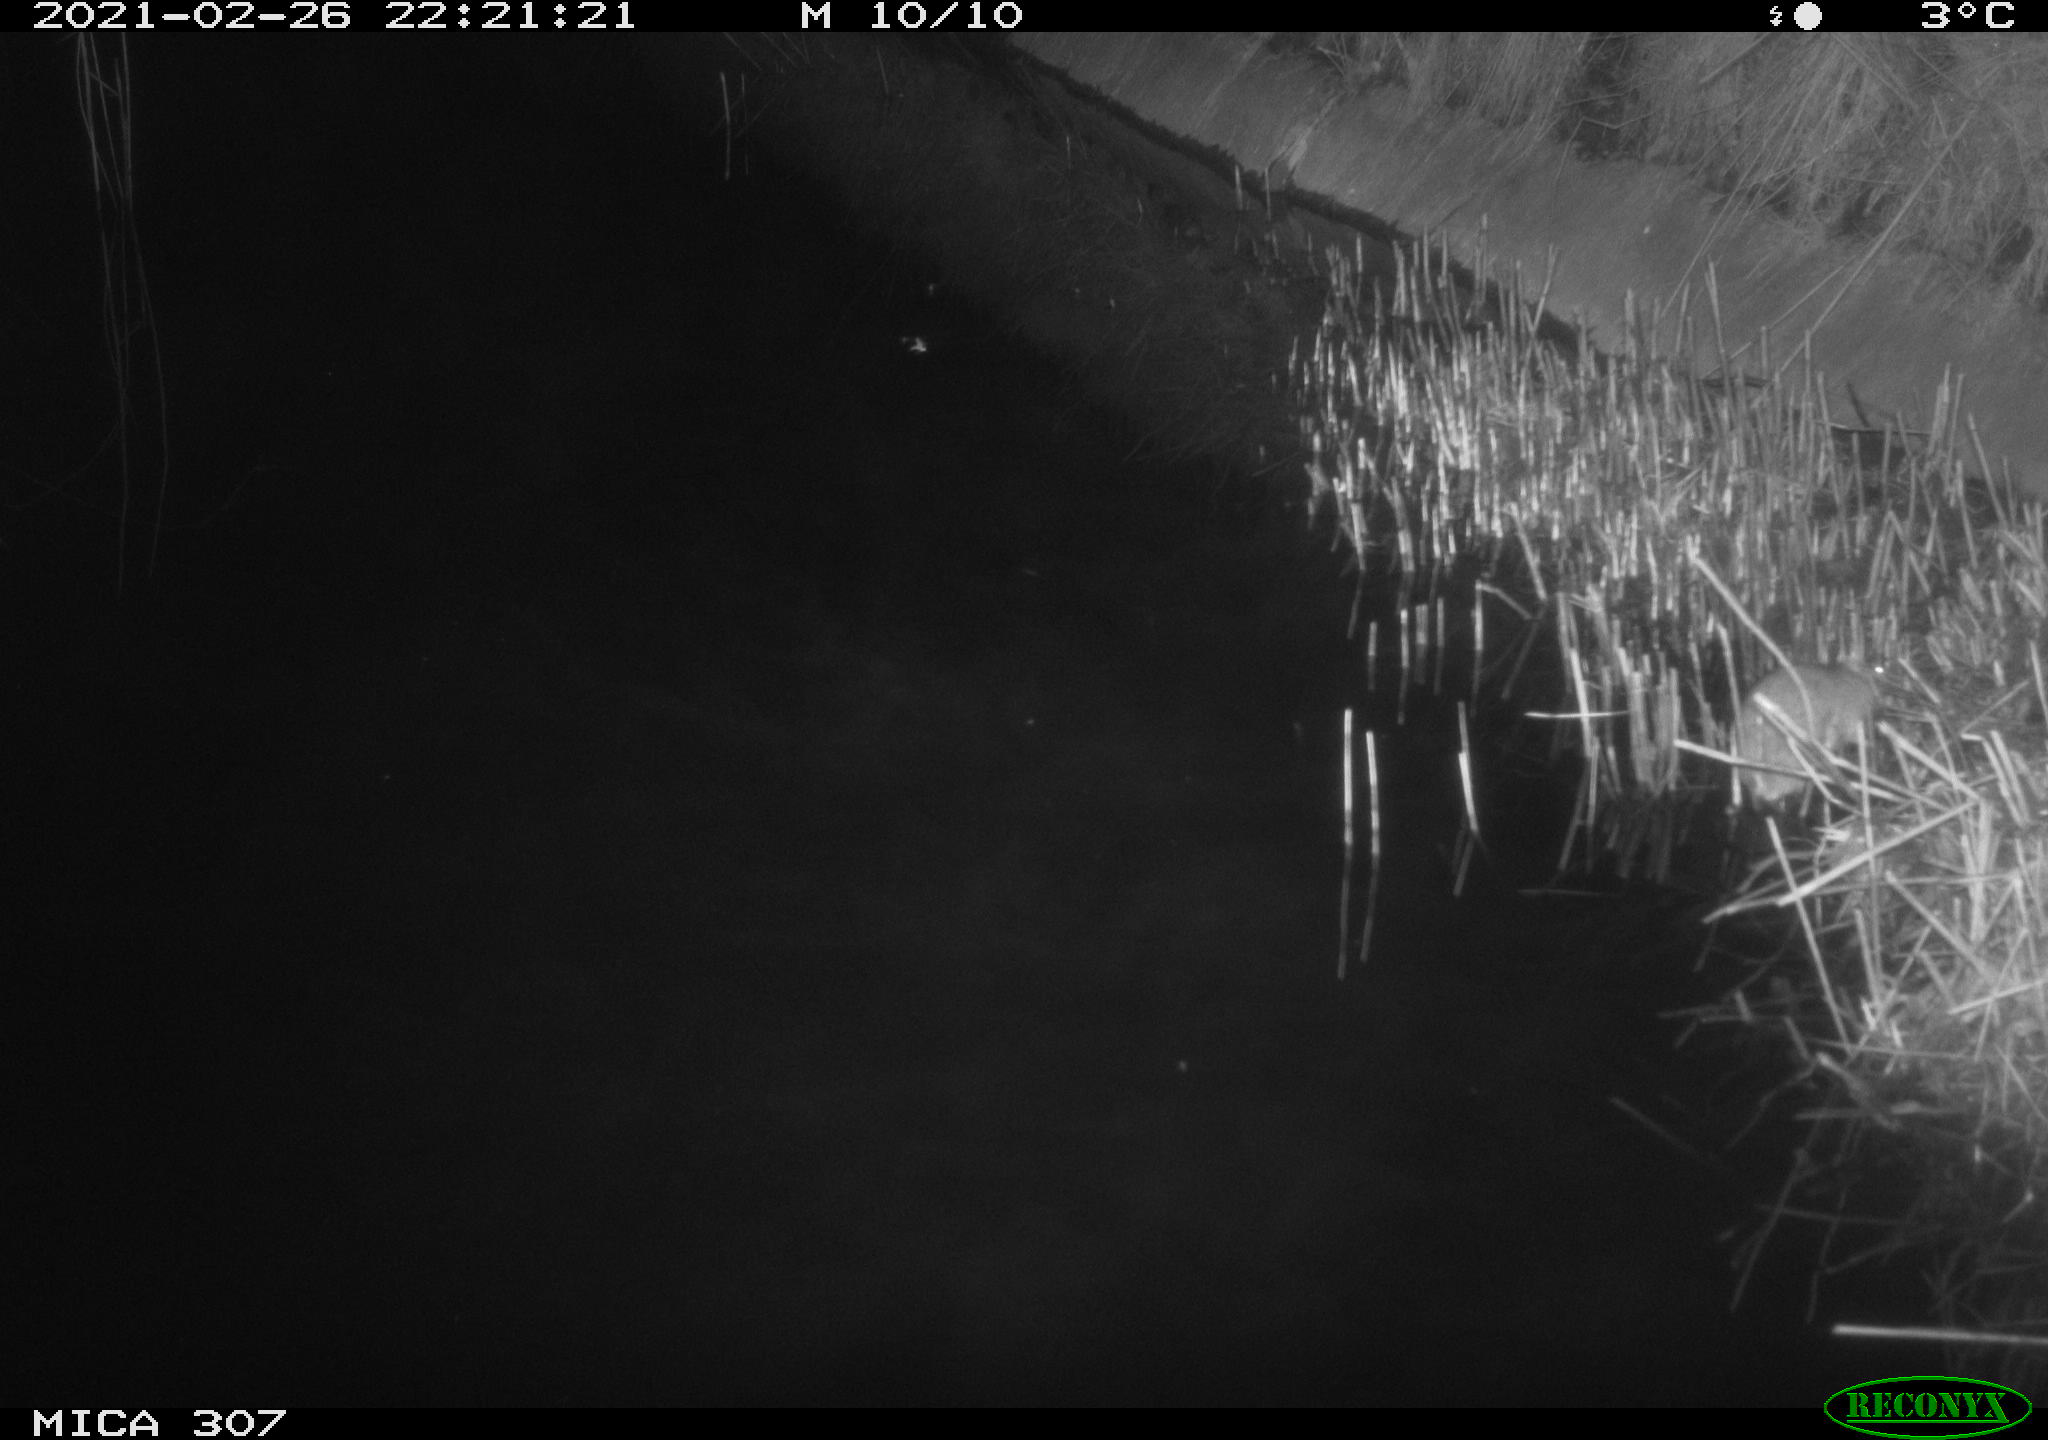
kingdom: Animalia
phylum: Chordata
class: Mammalia
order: Rodentia
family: Muridae
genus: Rattus
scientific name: Rattus norvegicus
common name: Brown rat
